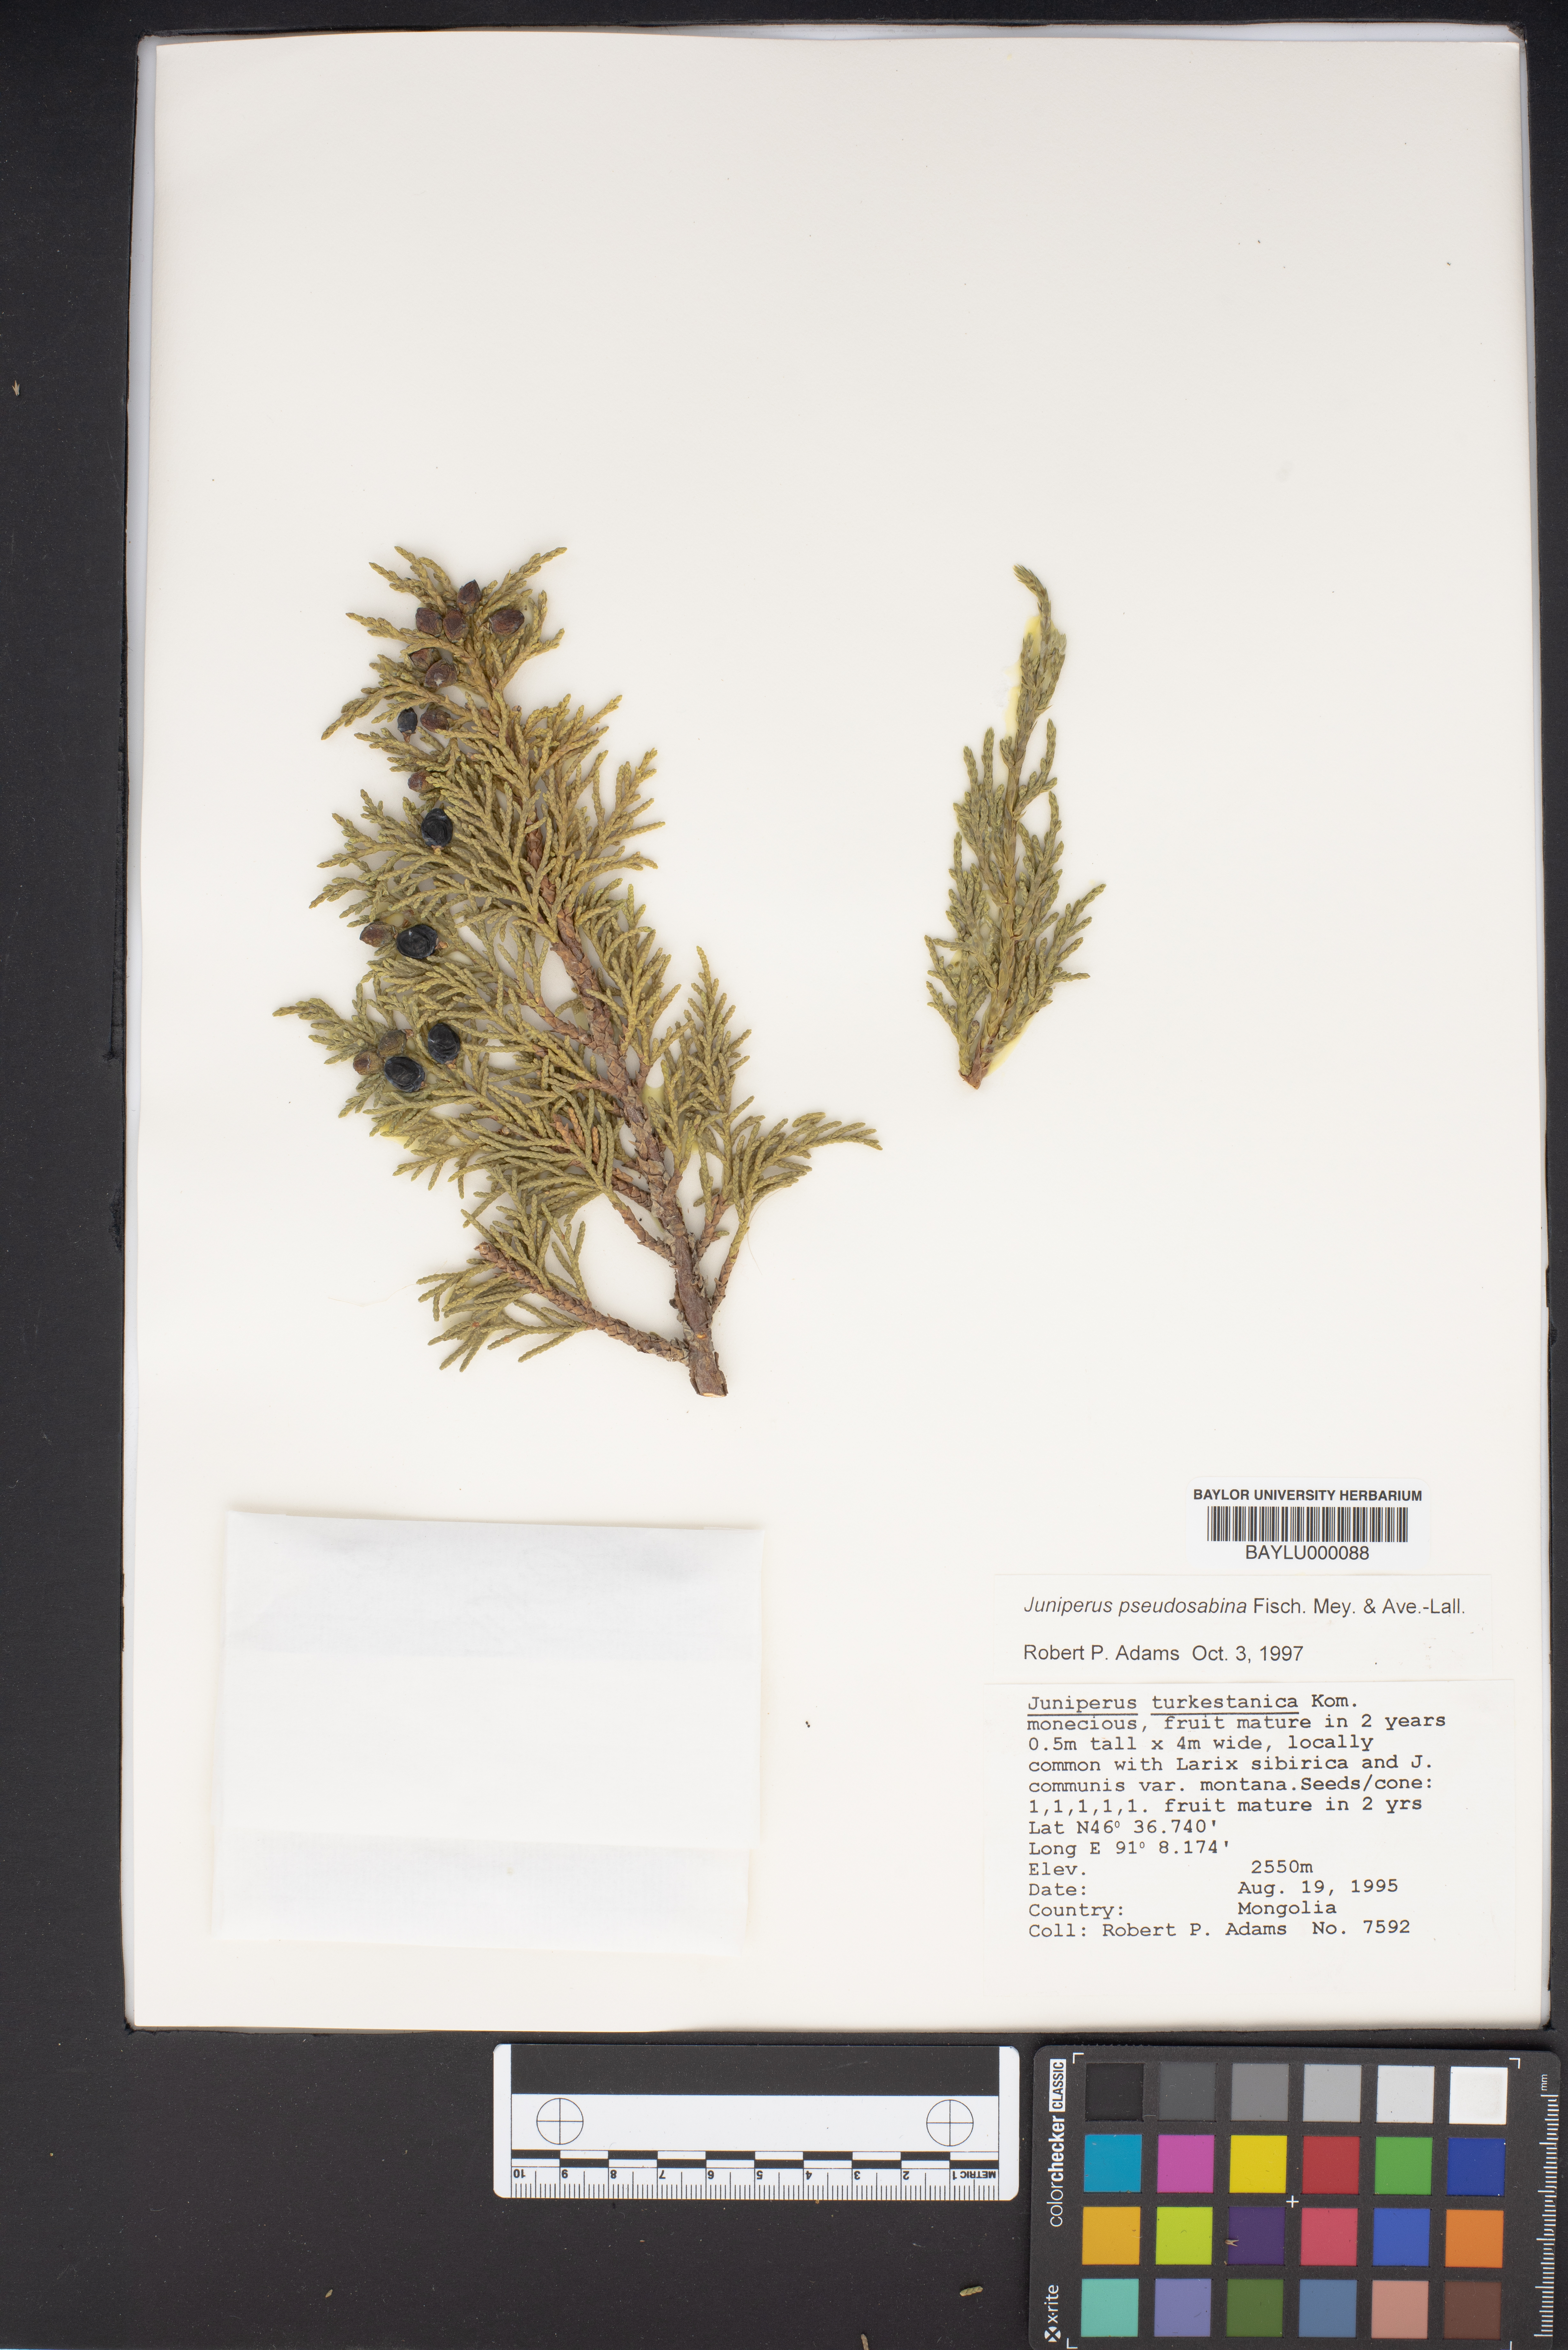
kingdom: Plantae
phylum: Tracheophyta
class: Pinopsida
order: Pinales
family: Cupressaceae
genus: Juniperus
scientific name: Juniperus pseudosabina
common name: Turkestan juniper
